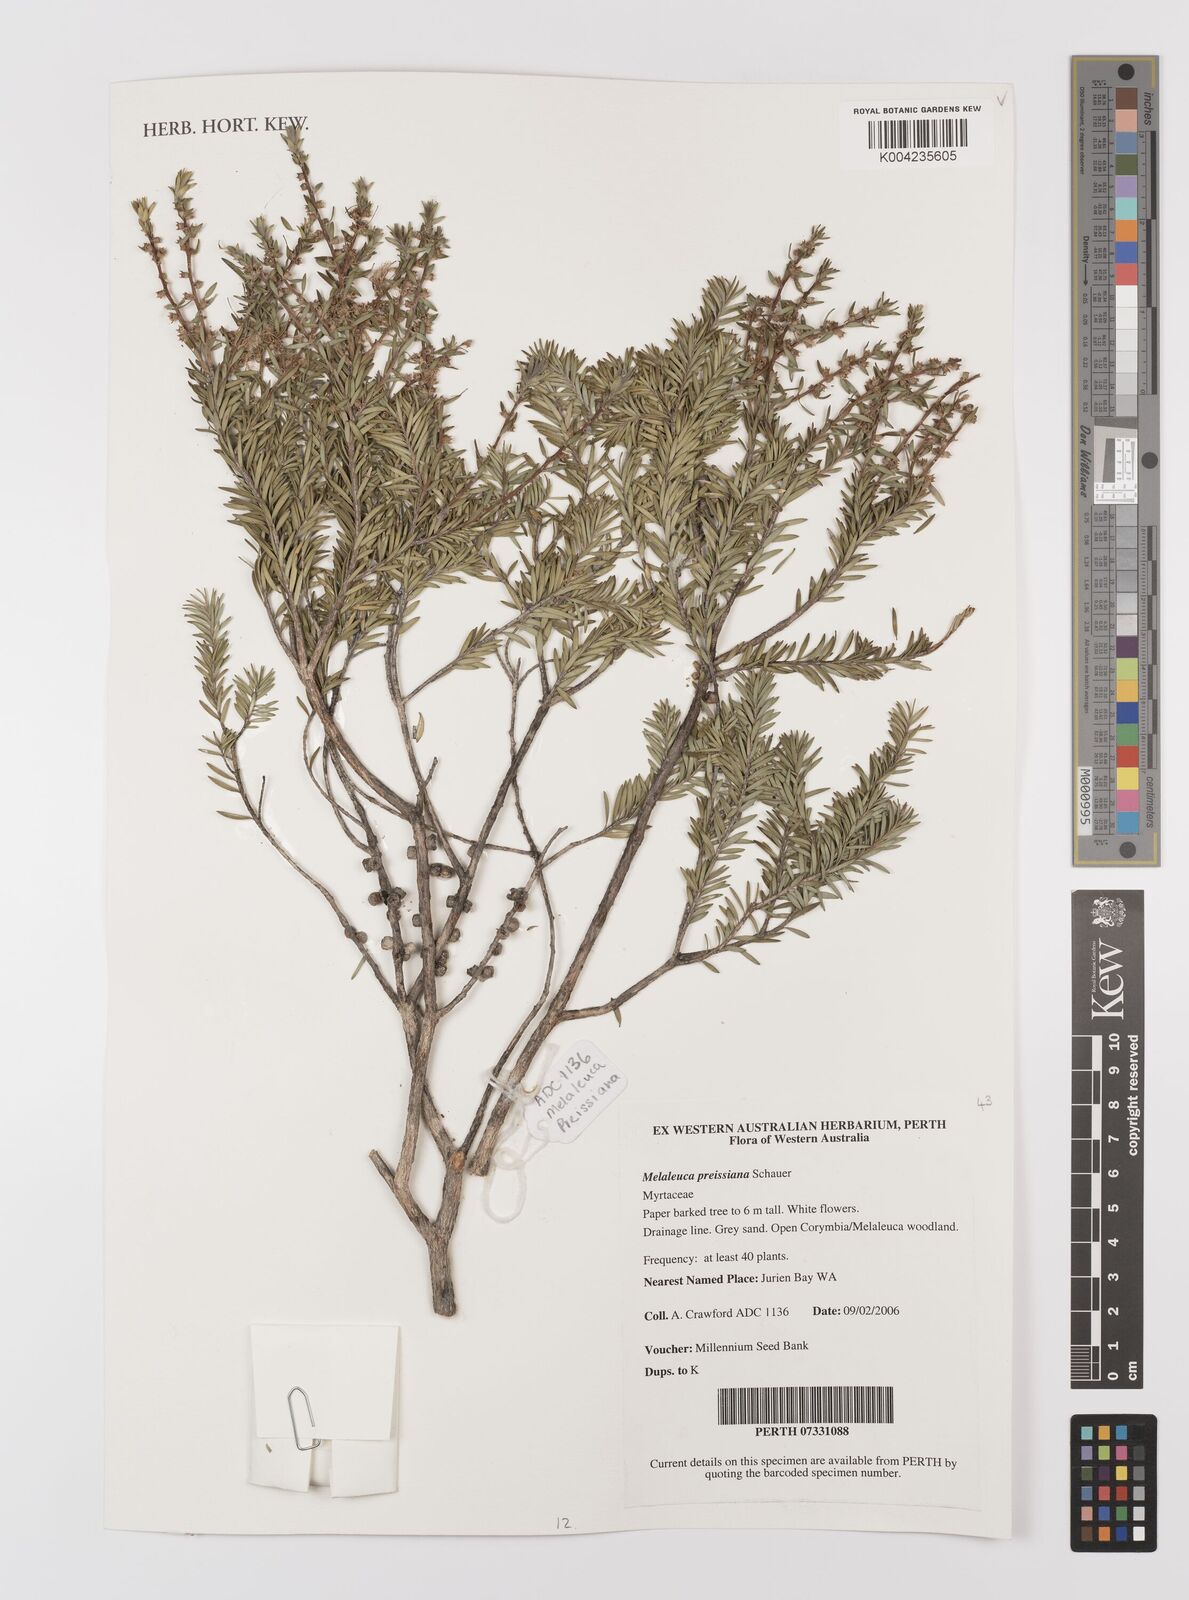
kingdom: Plantae
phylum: Tracheophyta
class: Magnoliopsida
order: Myrtales
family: Myrtaceae
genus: Melaleuca
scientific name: Melaleuca preissiana
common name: Preiss's paperbark
